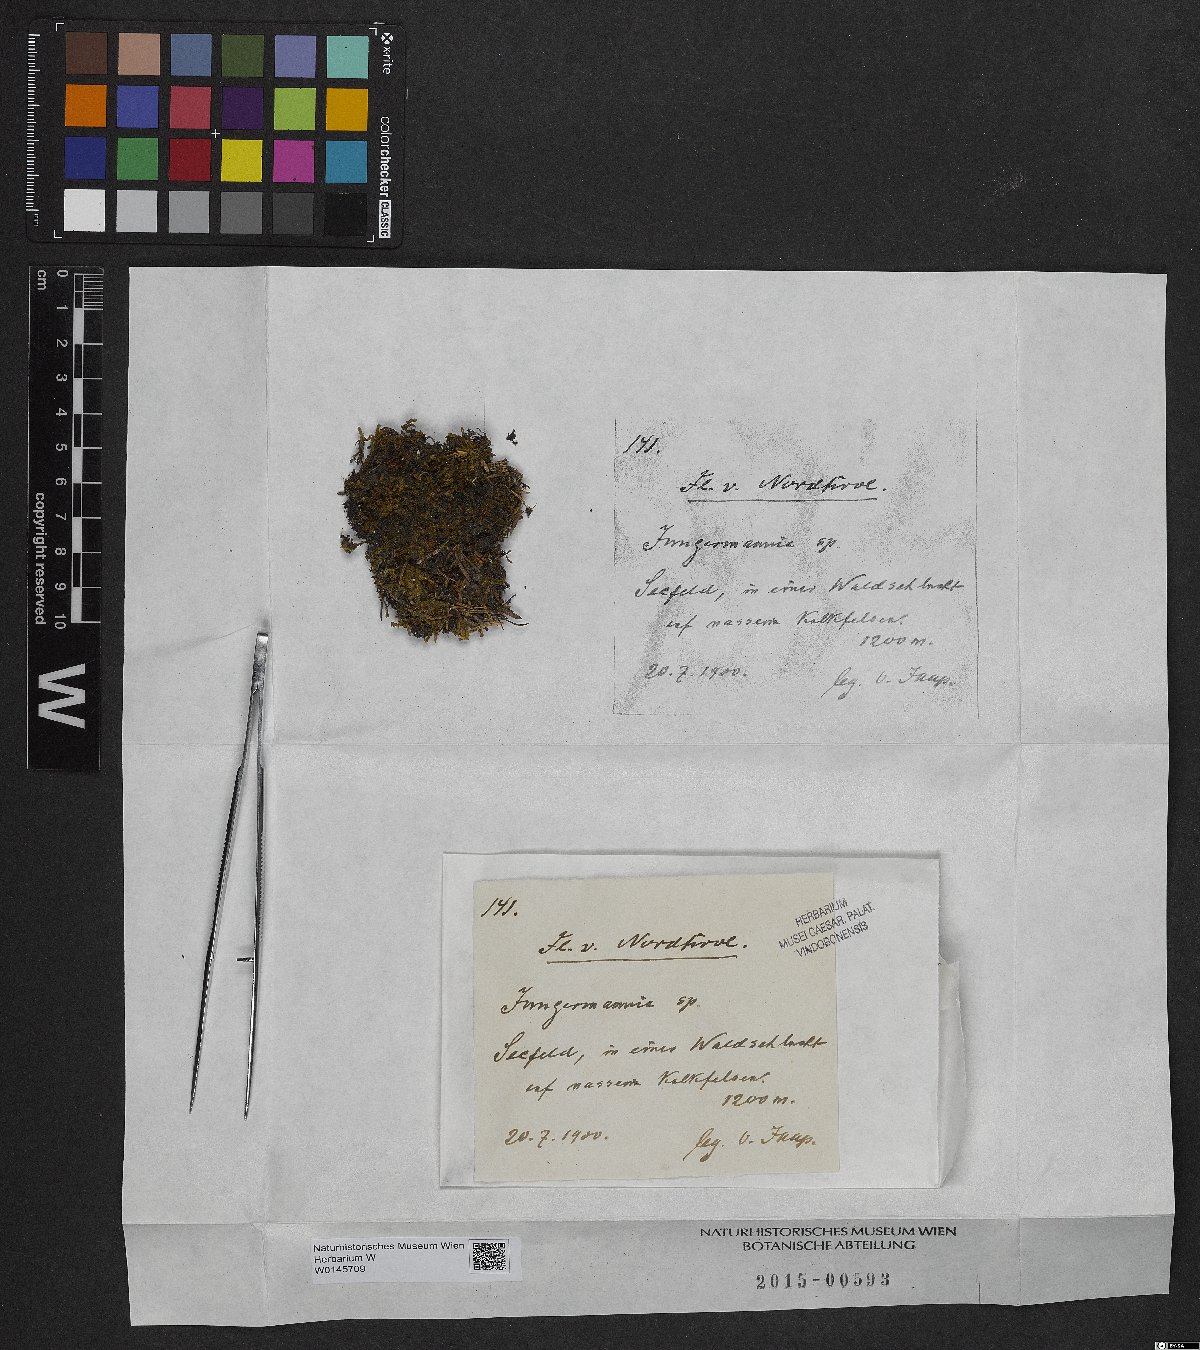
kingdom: Plantae
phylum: Marchantiophyta
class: Jungermanniopsida
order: Jungermanniales
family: Jungermanniaceae
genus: Jungermannia
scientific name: Jungermannia
